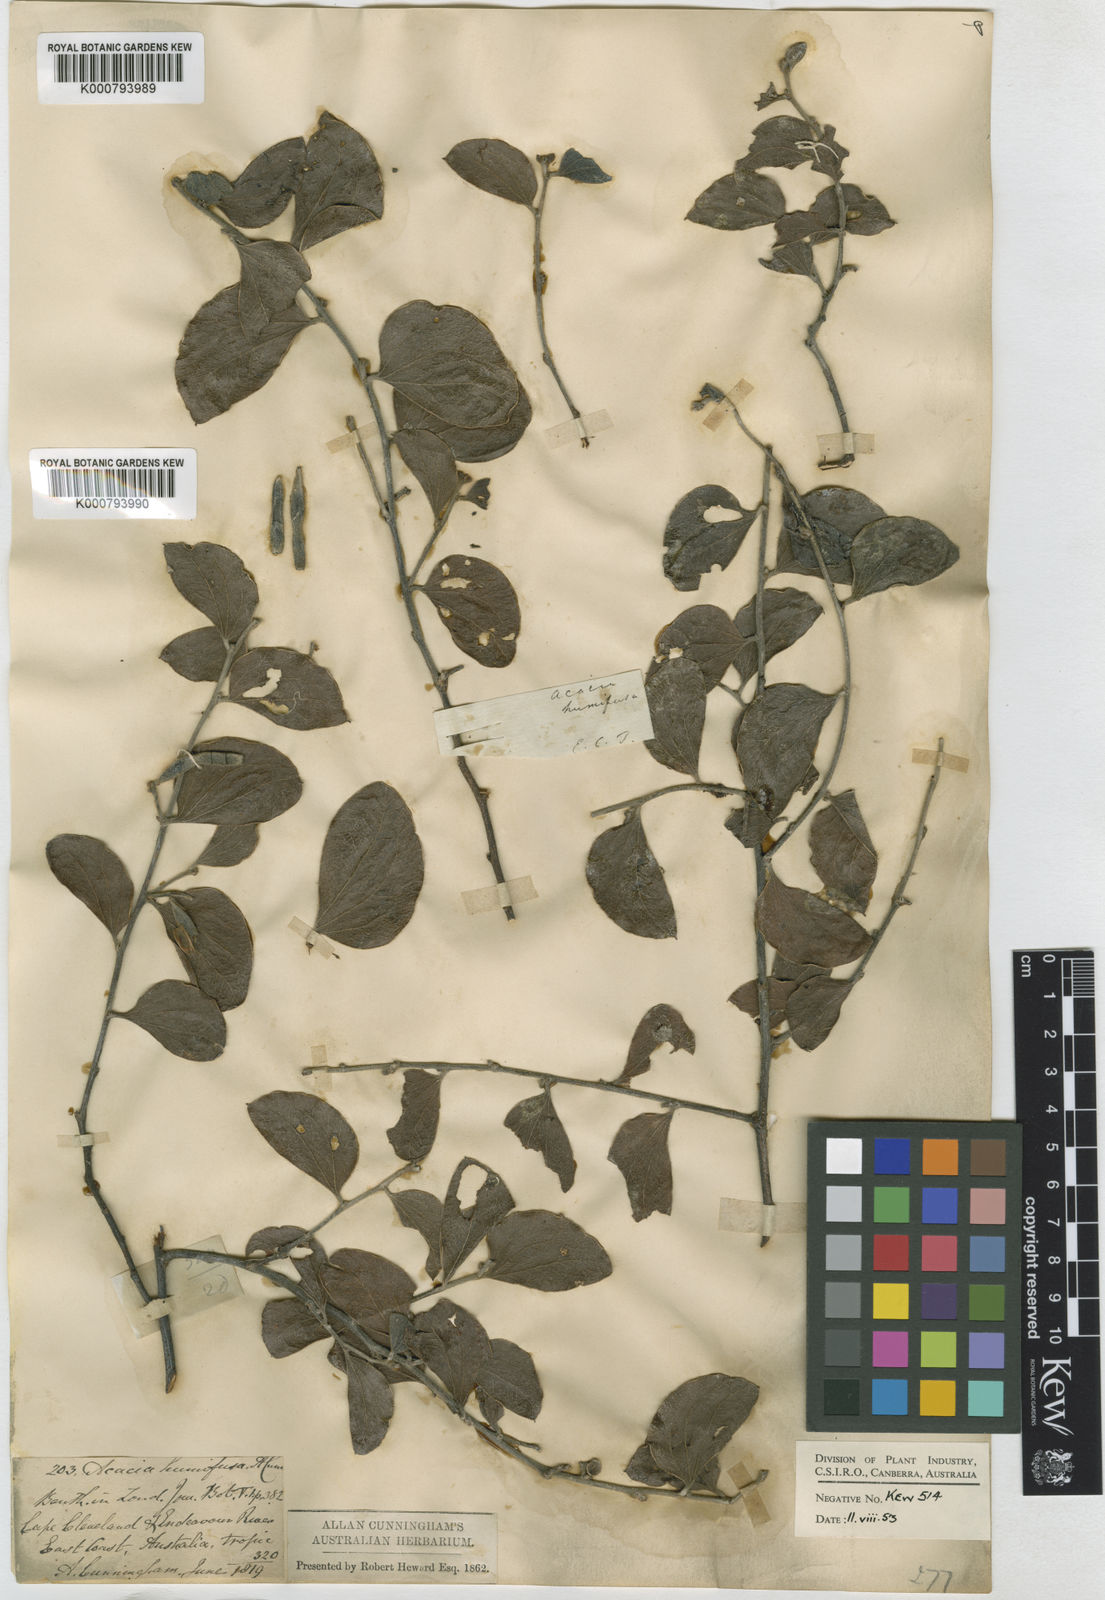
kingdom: Plantae
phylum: Tracheophyta
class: Magnoliopsida
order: Fabales
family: Fabaceae
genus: Acacia
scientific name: Acacia humifusa
